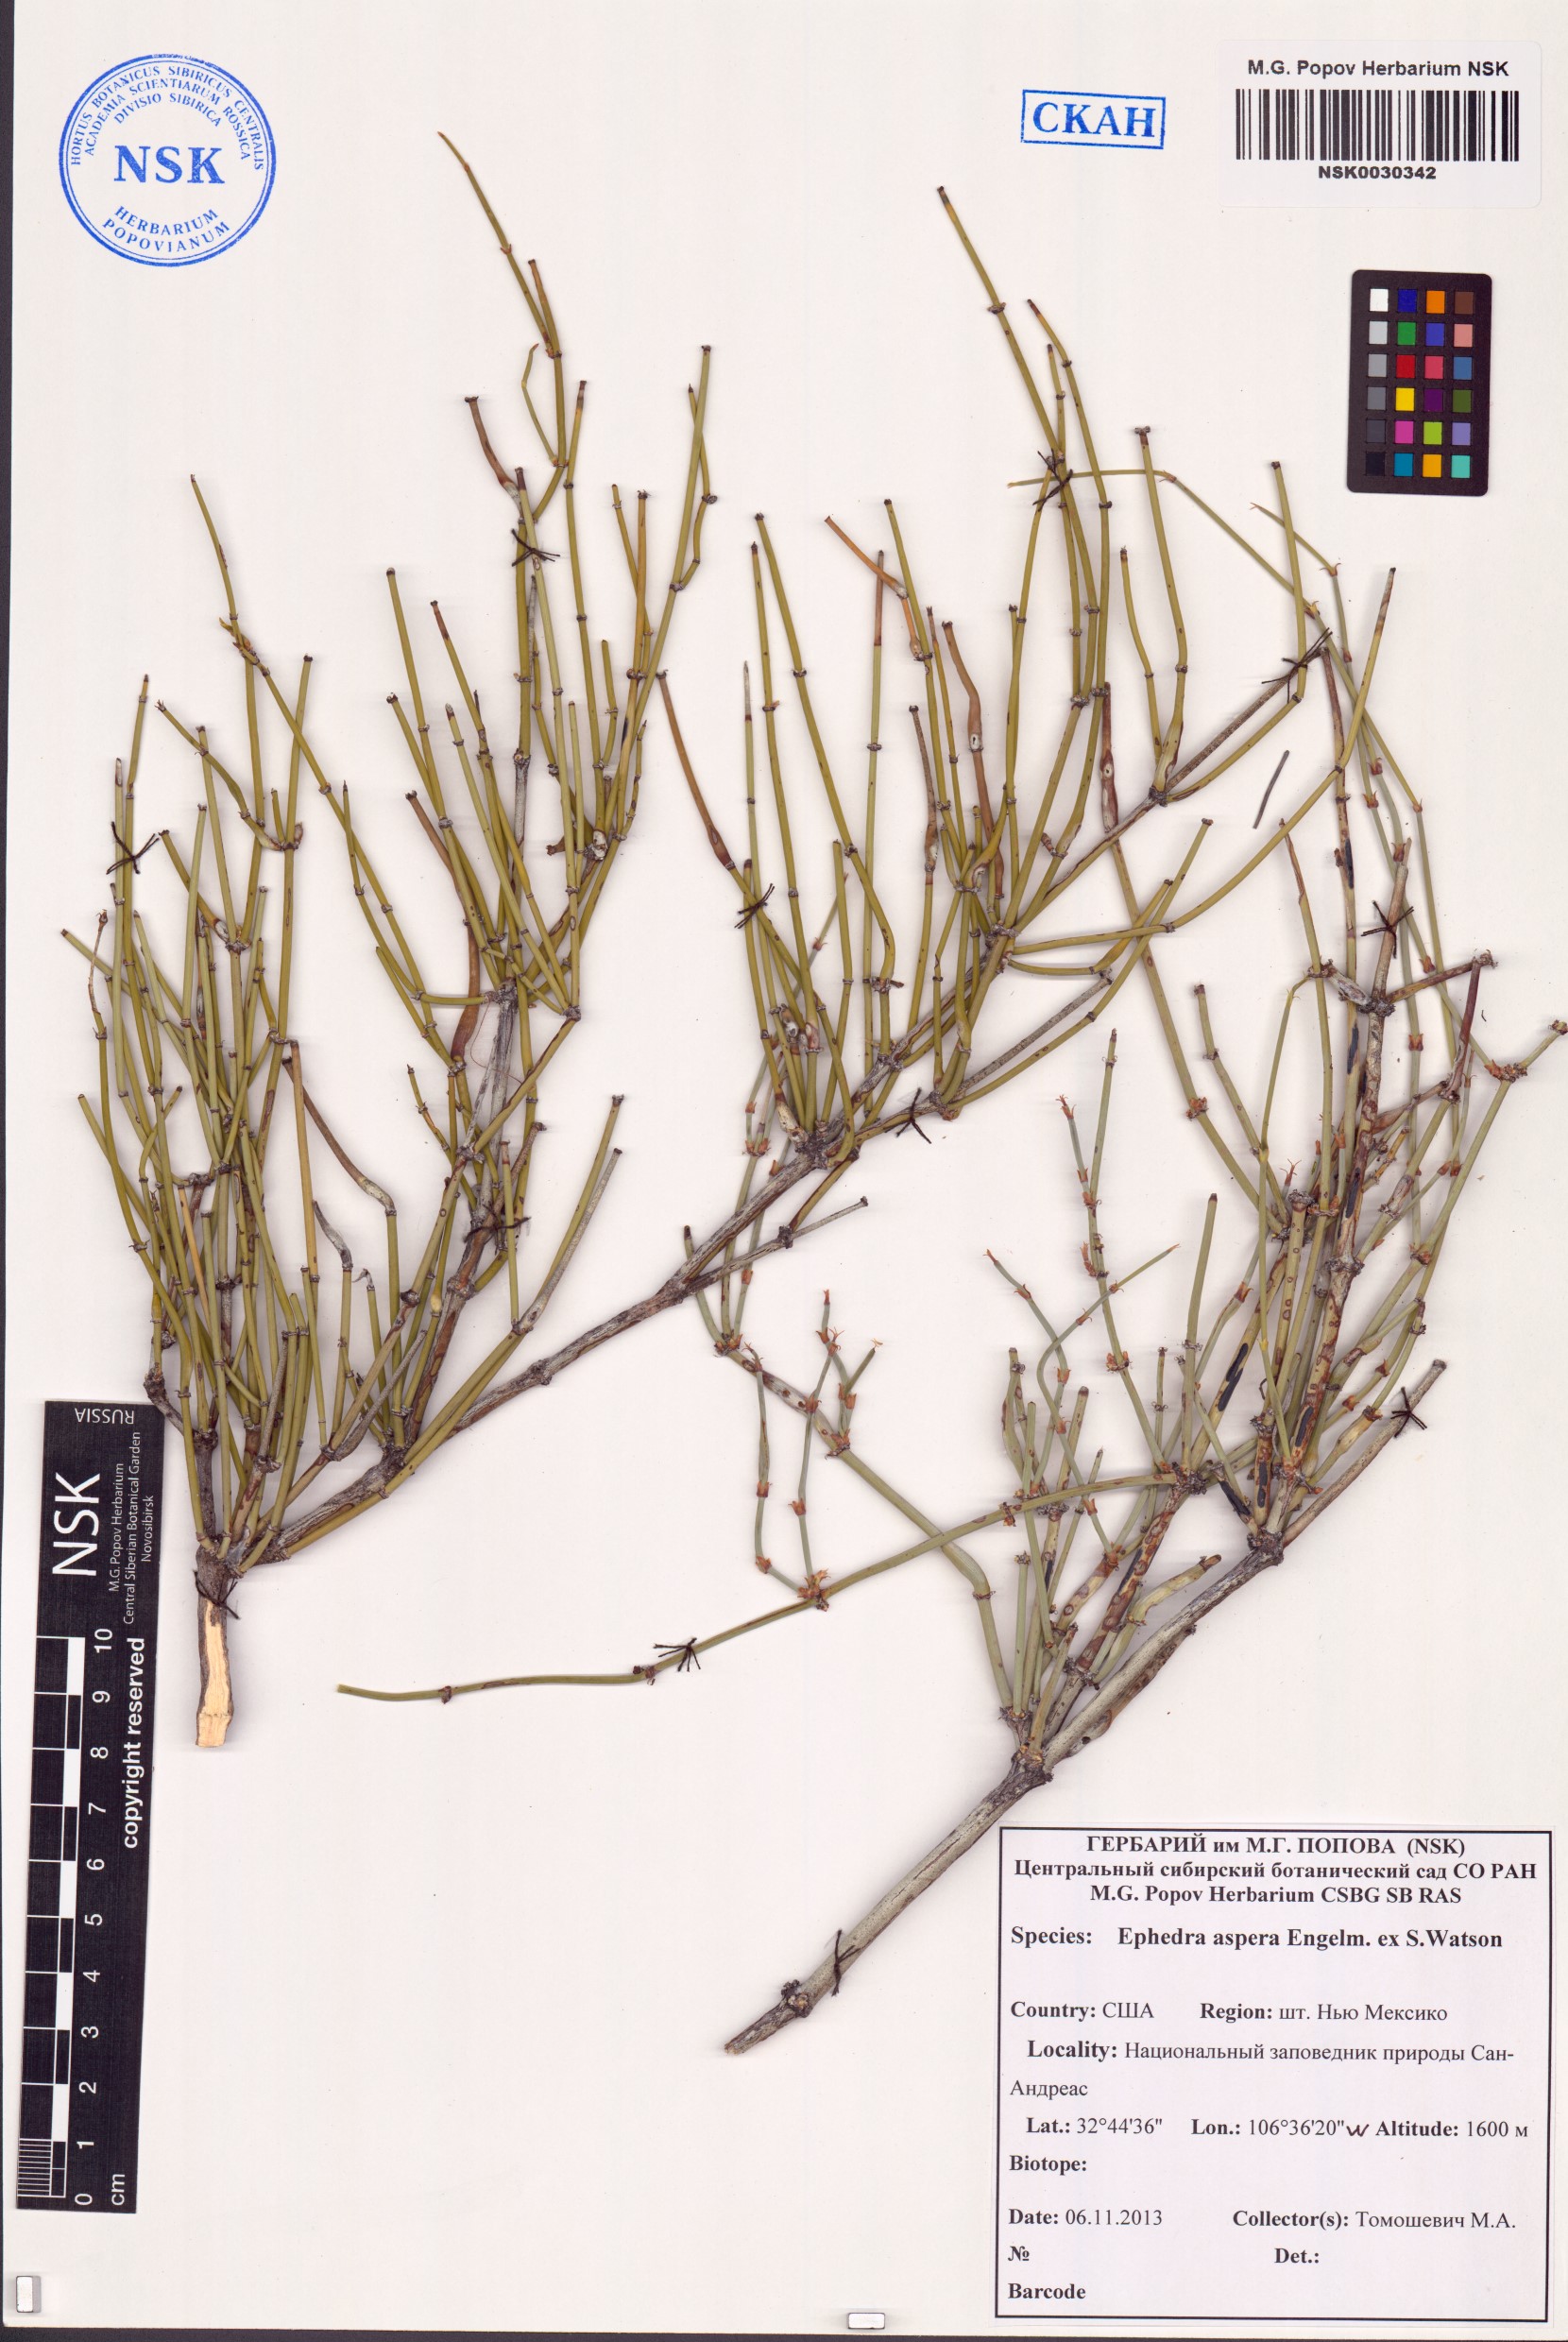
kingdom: Plantae
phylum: Tracheophyta
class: Gnetopsida
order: Ephedrales
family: Ephedraceae
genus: Ephedra
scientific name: Ephedra aspera
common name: Boundary ephedra
